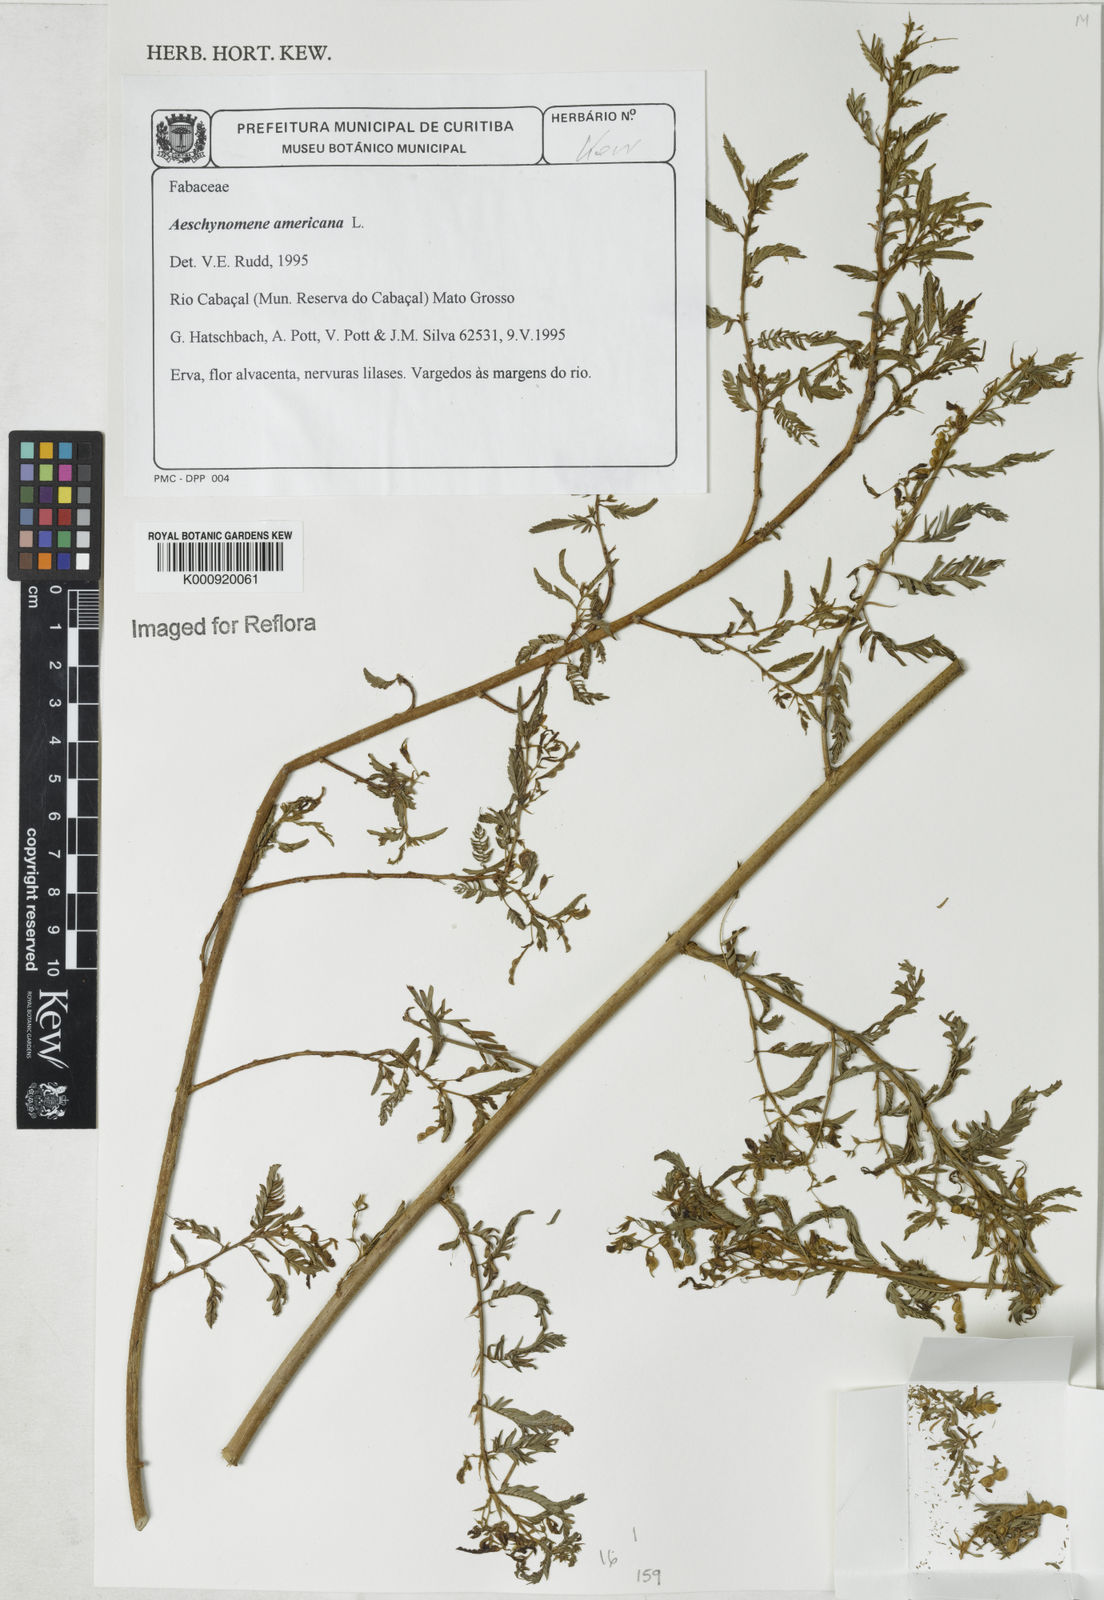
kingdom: Plantae
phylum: Tracheophyta
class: Magnoliopsida
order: Fabales
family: Fabaceae
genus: Aeschynomene
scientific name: Aeschynomene americana
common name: Joint-vetch
